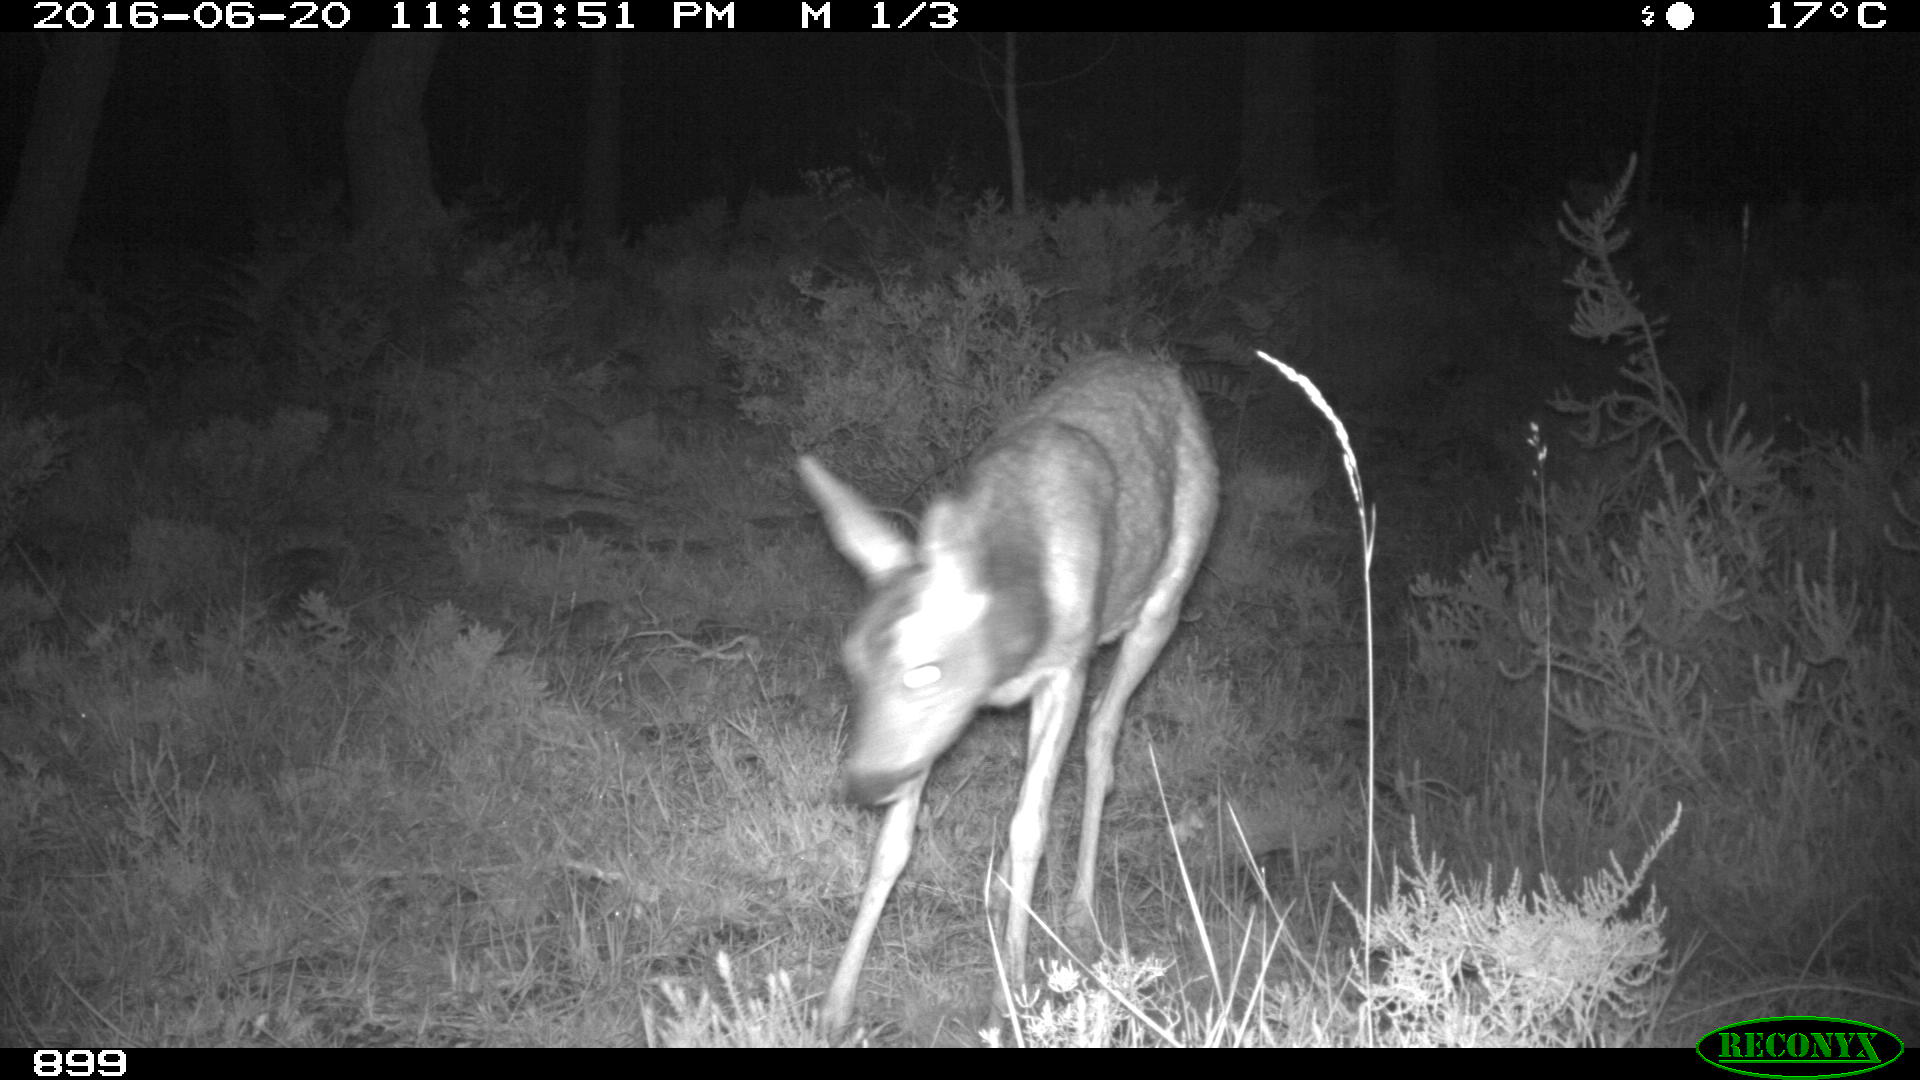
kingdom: Animalia
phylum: Chordata
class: Mammalia
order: Artiodactyla
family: Cervidae
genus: Capreolus
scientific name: Capreolus capreolus
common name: Western roe deer
